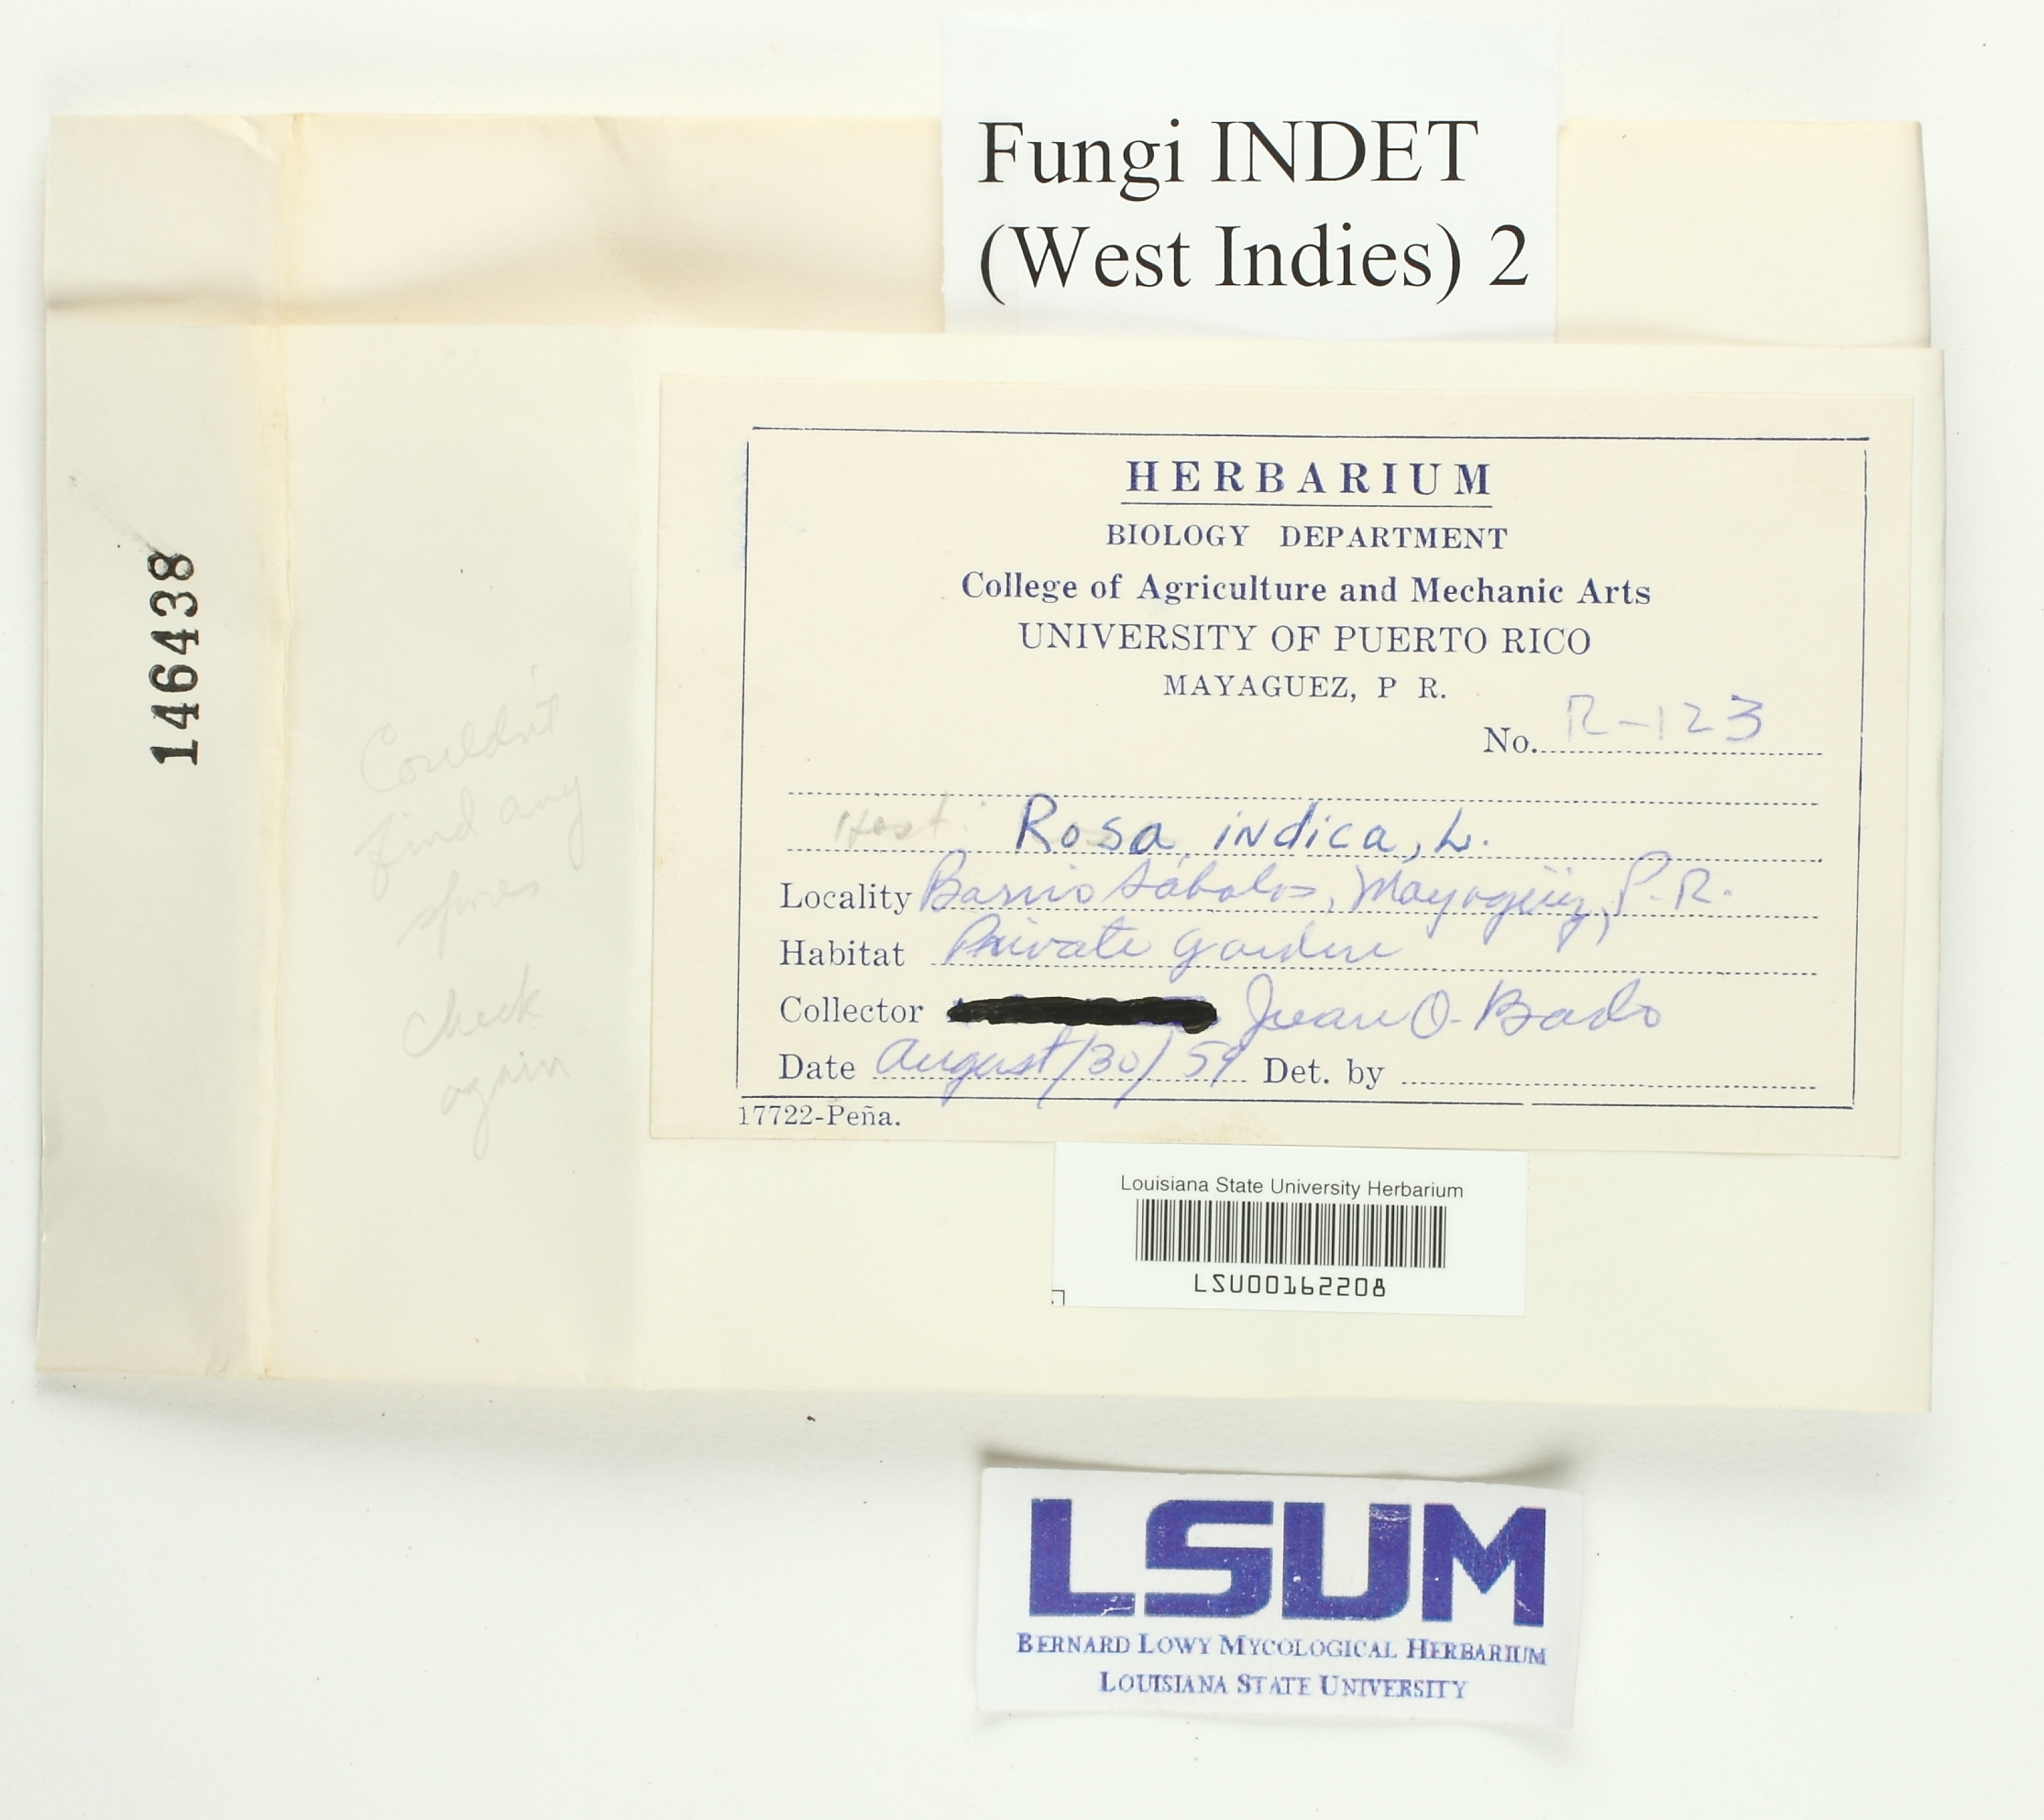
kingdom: Fungi
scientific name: Fungi
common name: Fungi
